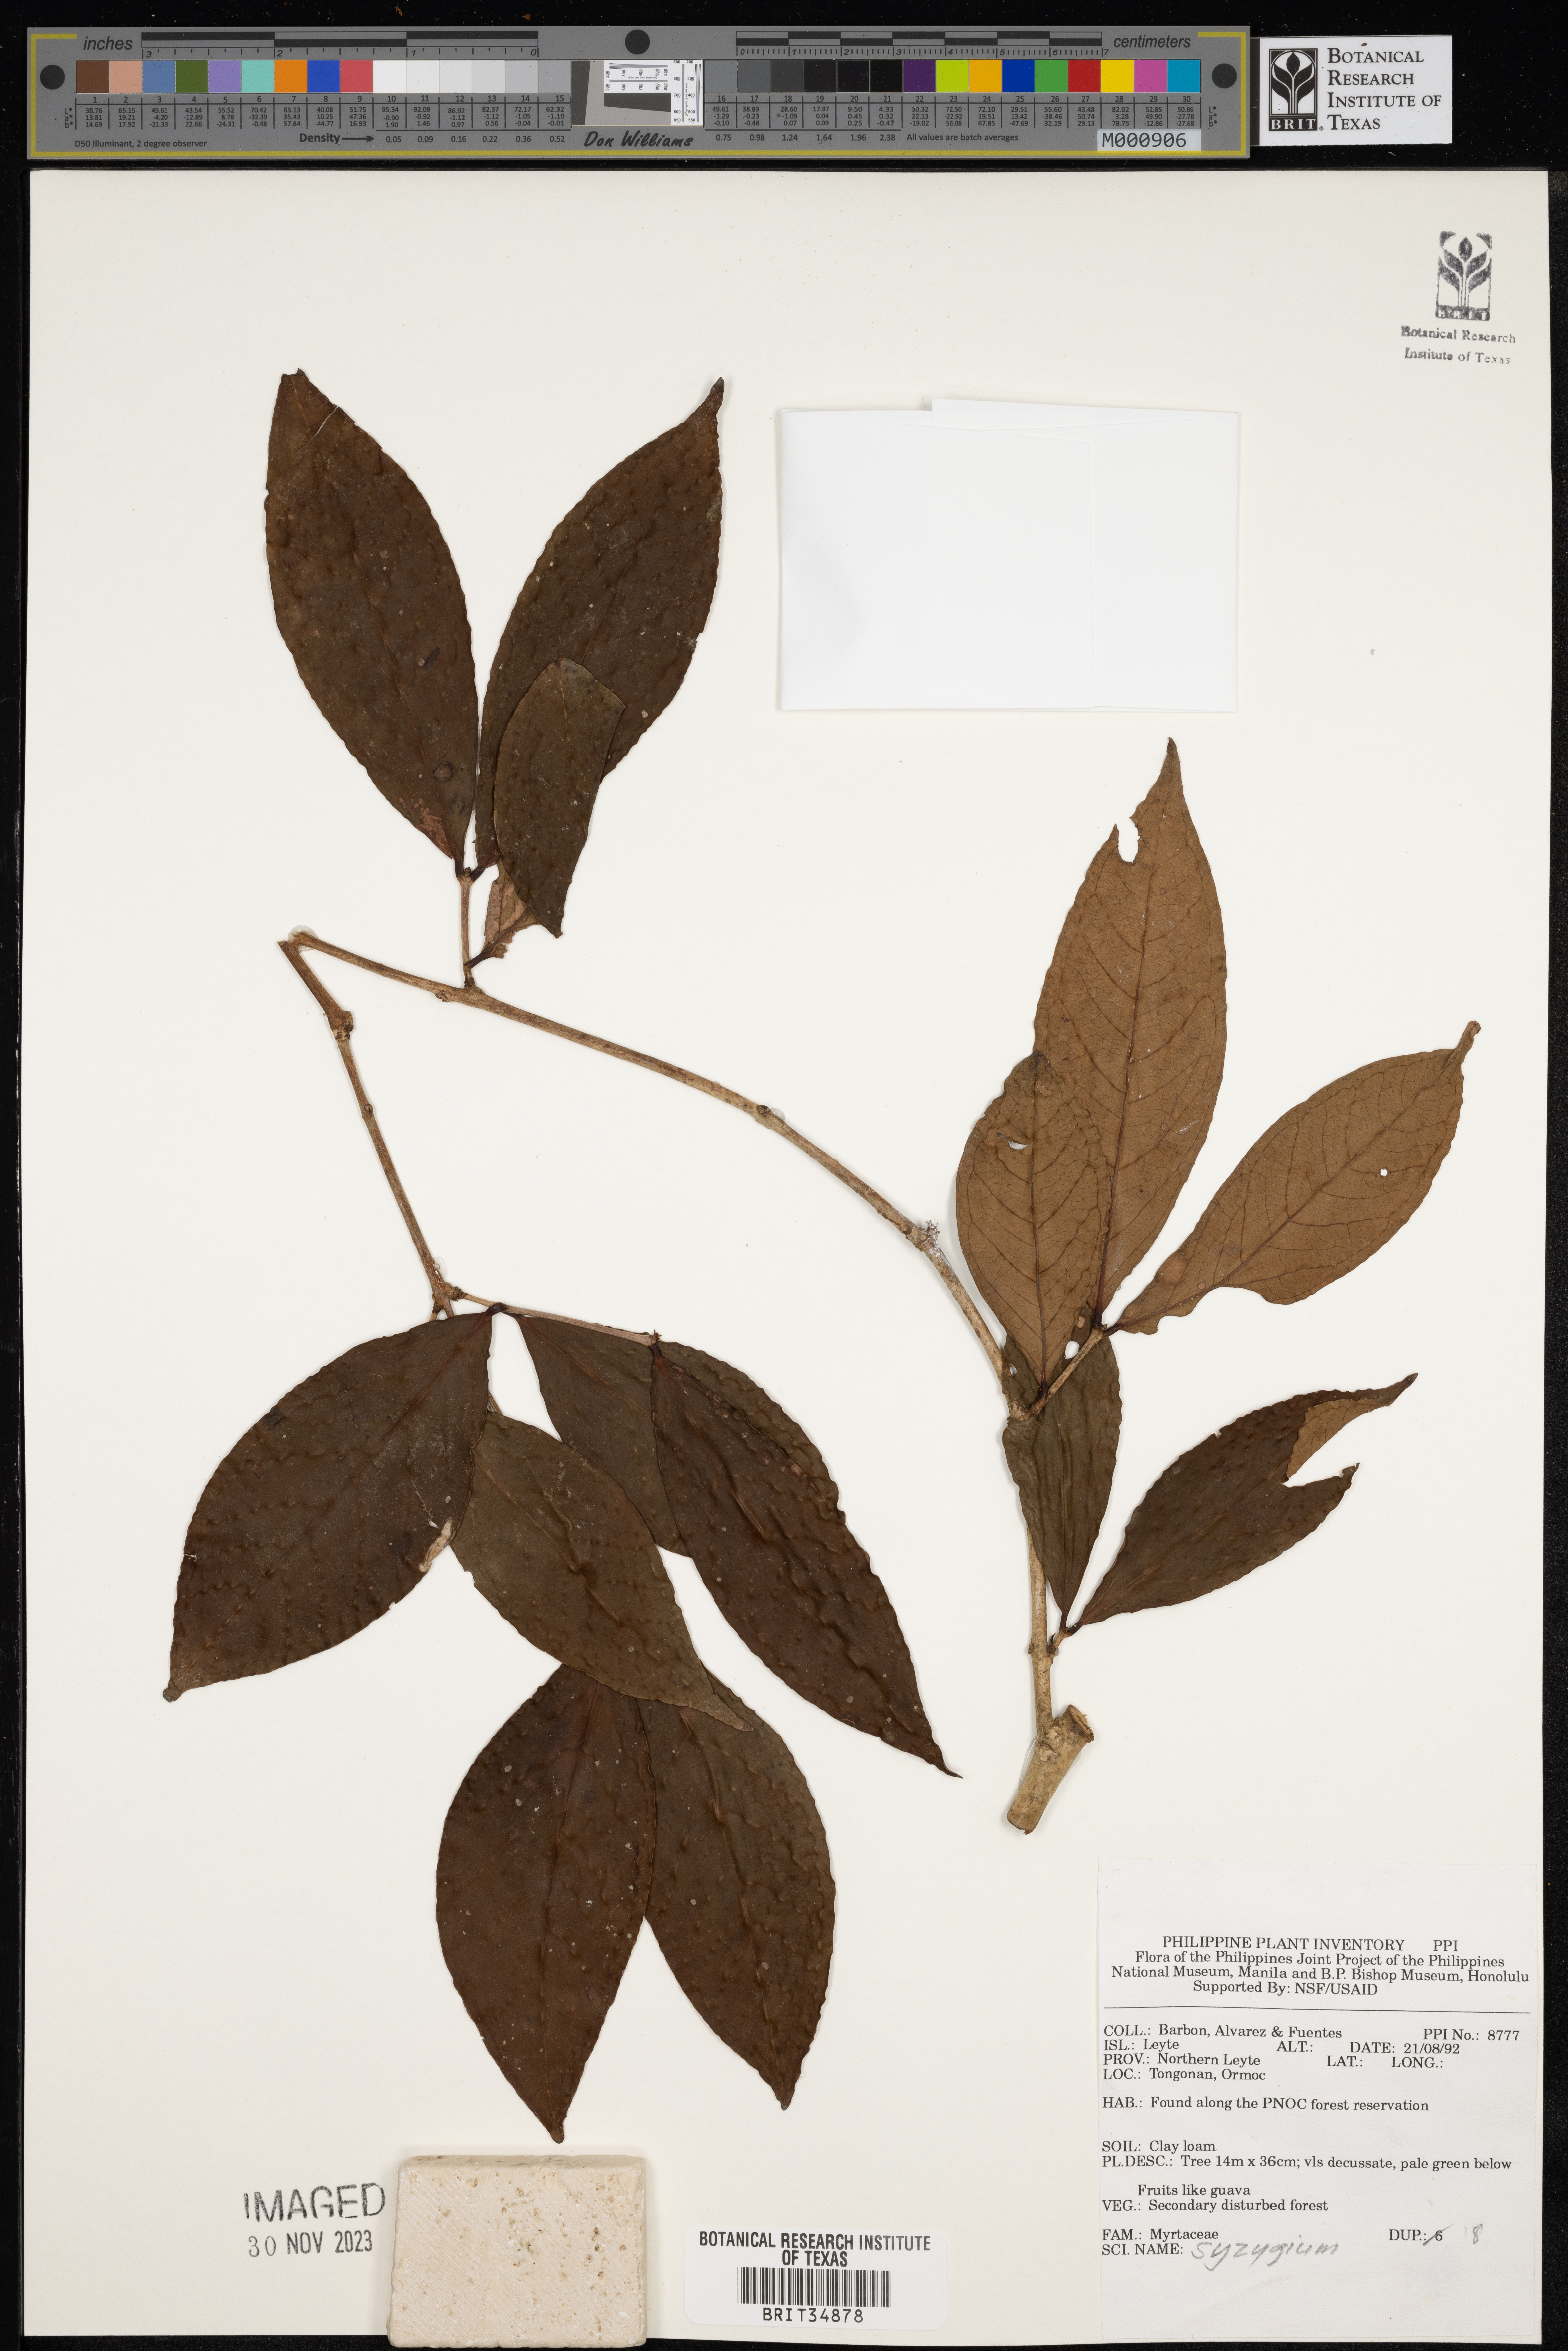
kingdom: Plantae
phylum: Tracheophyta
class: Magnoliopsida
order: Myrtales
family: Myrtaceae
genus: Syzygium
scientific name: Syzygium
